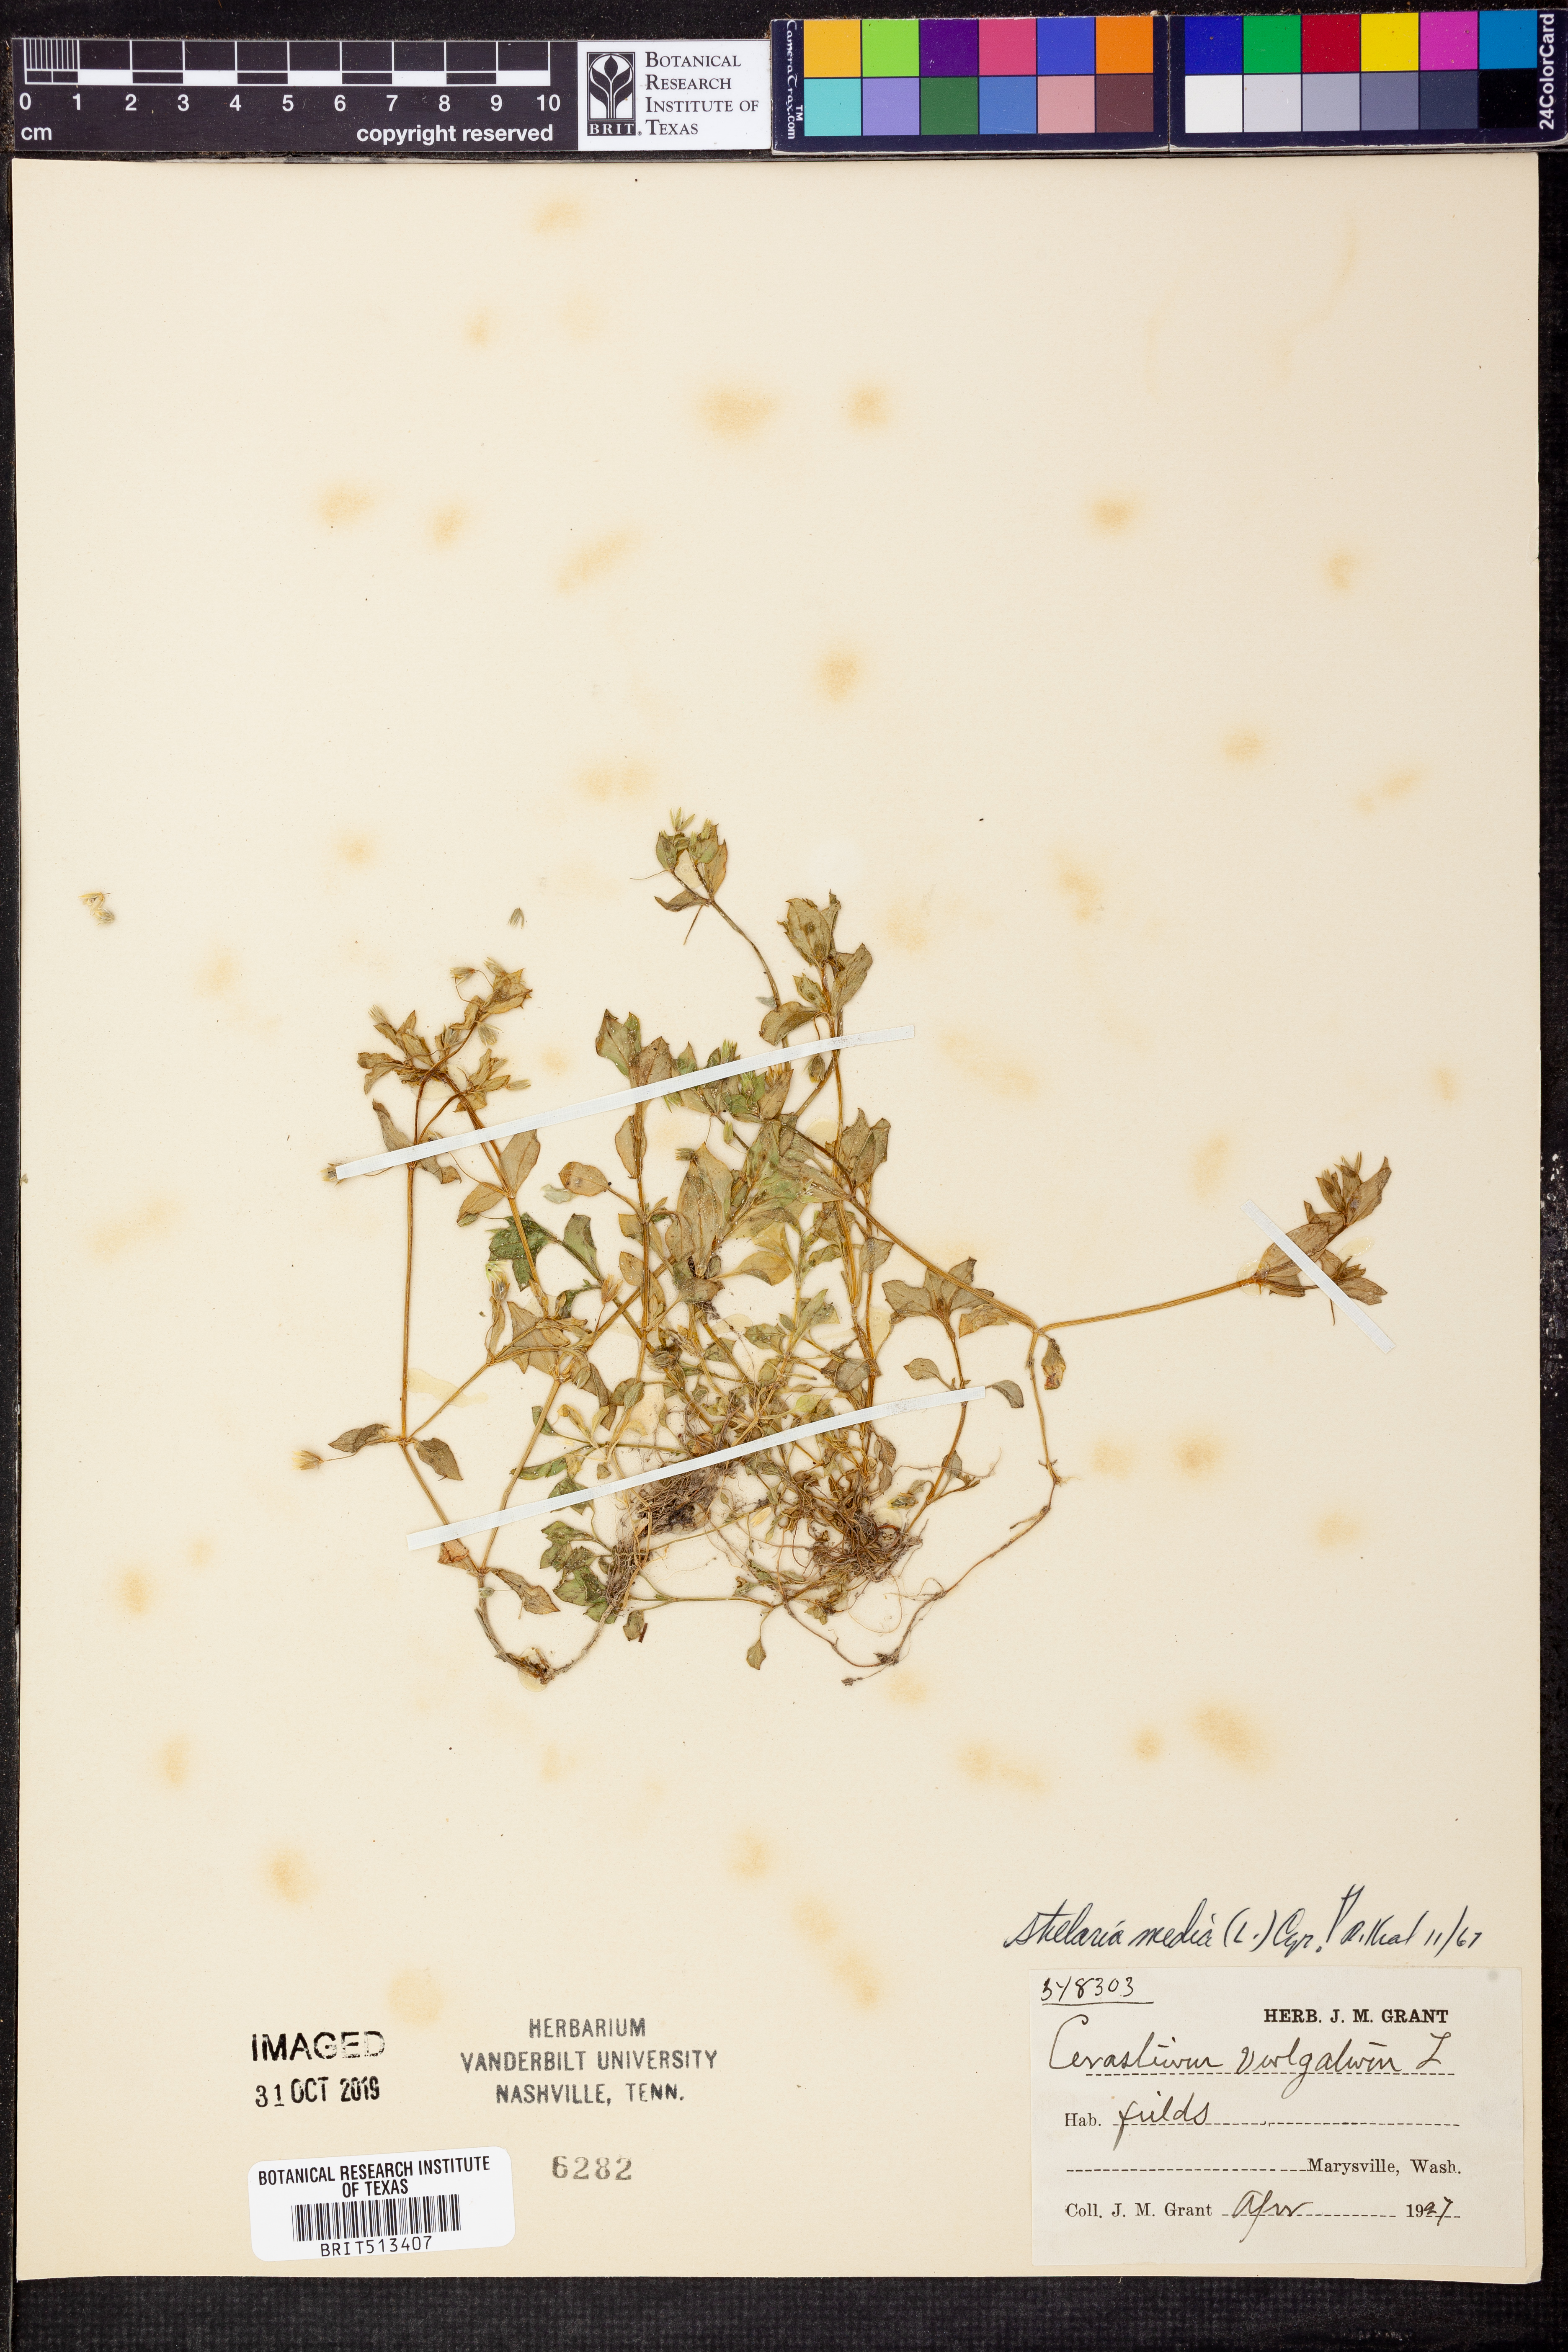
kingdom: Plantae
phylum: Tracheophyta
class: Magnoliopsida
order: Caryophyllales
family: Caryophyllaceae
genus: Stellaria
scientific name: Stellaria media
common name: Common chickweed
